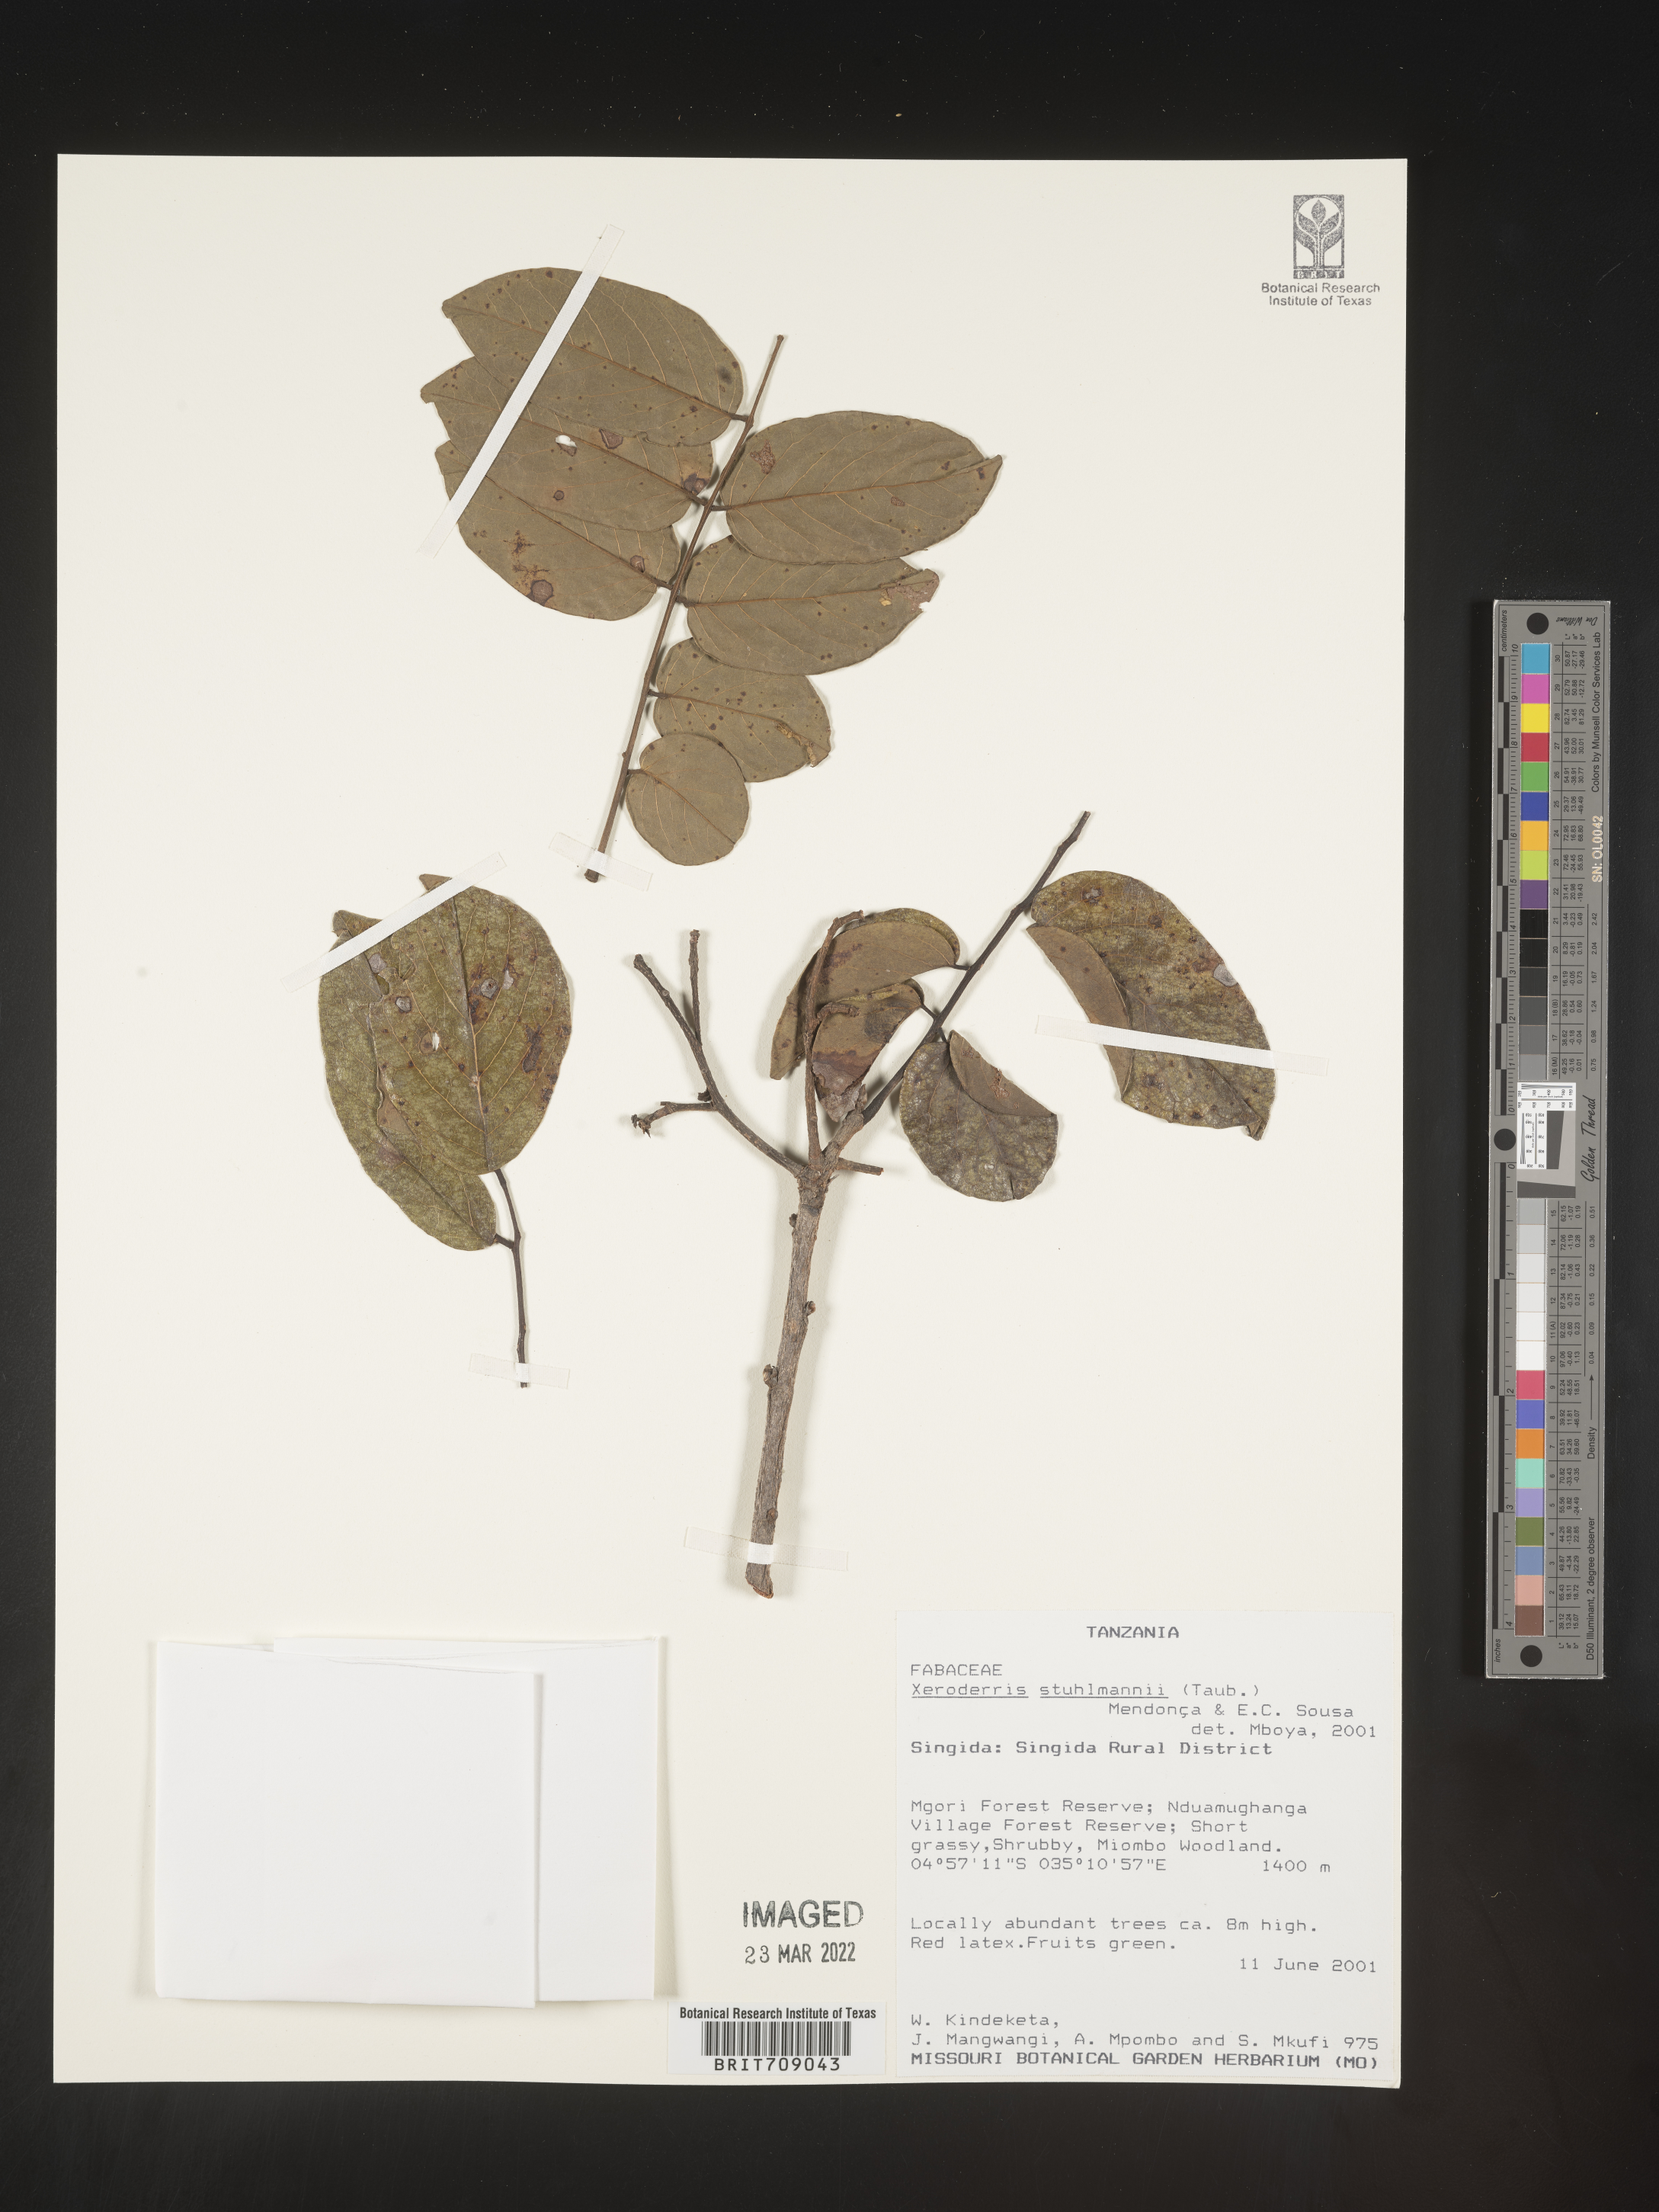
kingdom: Plantae
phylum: Tracheophyta
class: Magnoliopsida
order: Fabales
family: Fabaceae
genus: Aganope
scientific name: Aganope
